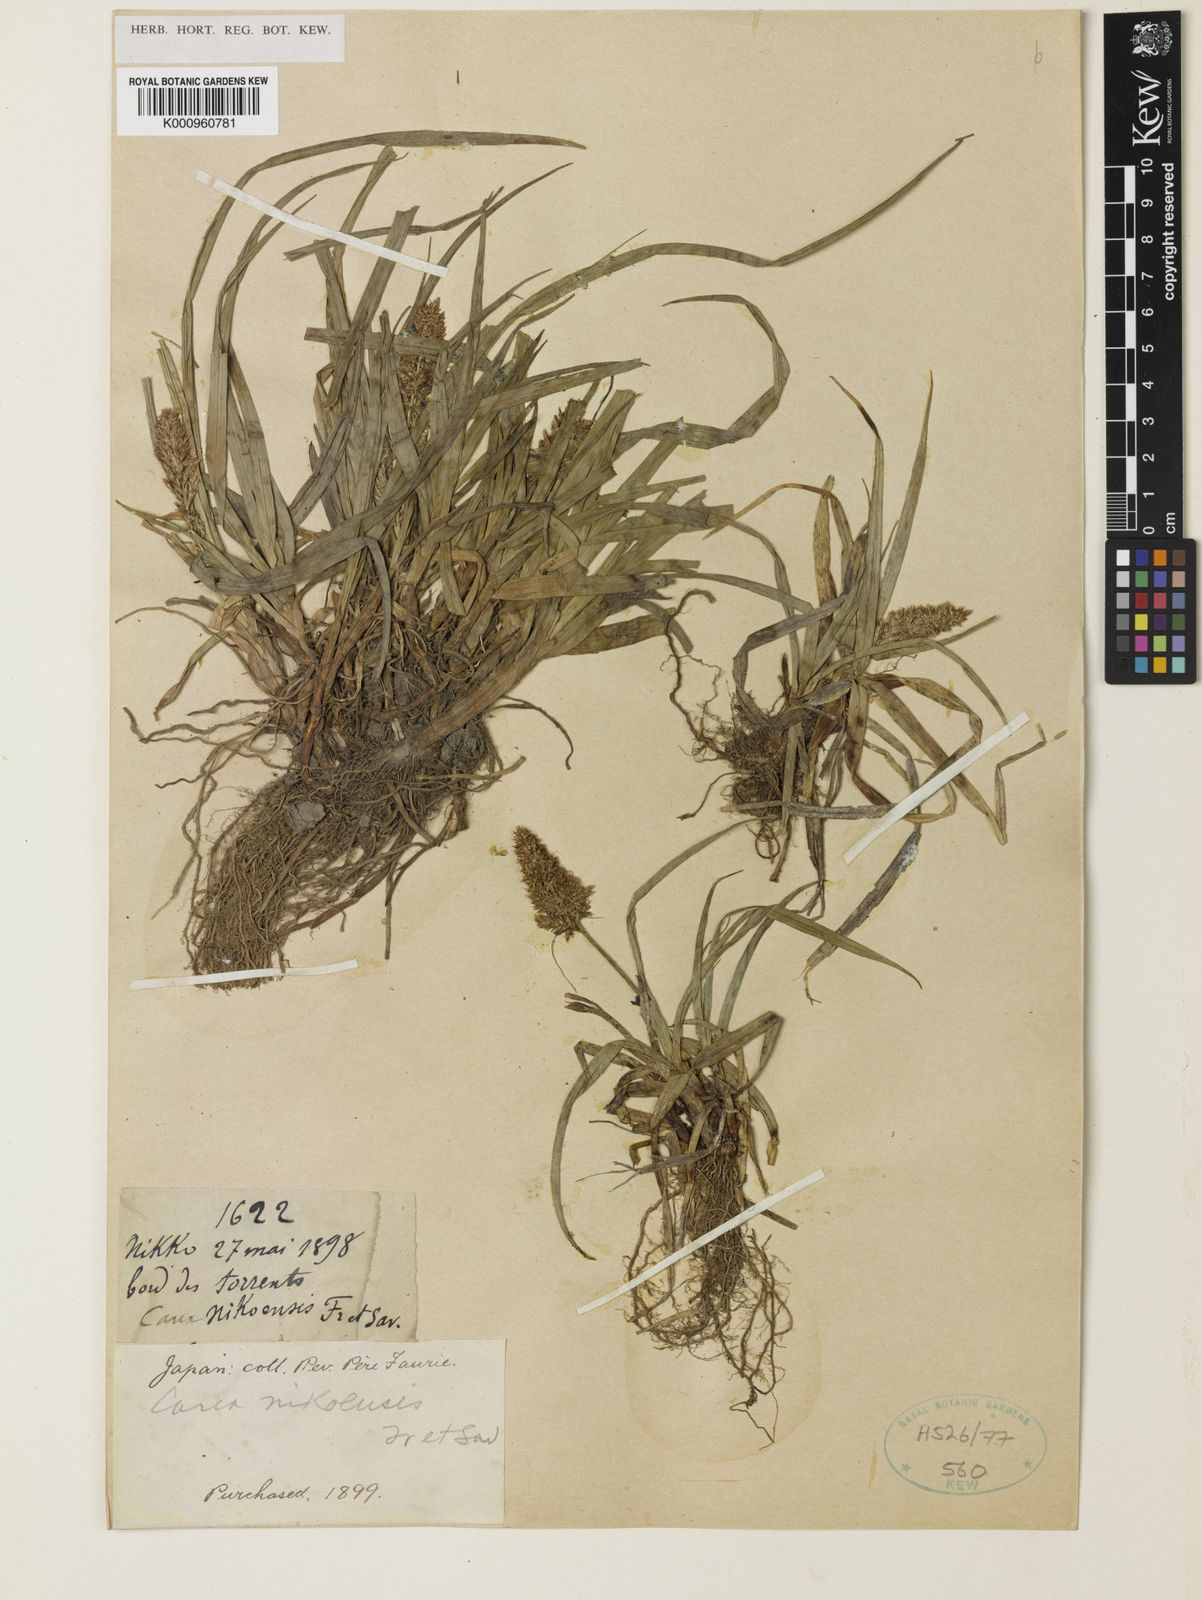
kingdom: Plantae
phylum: Tracheophyta
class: Liliopsida
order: Poales
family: Cyperaceae
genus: Carex
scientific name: Carex satsumensis
